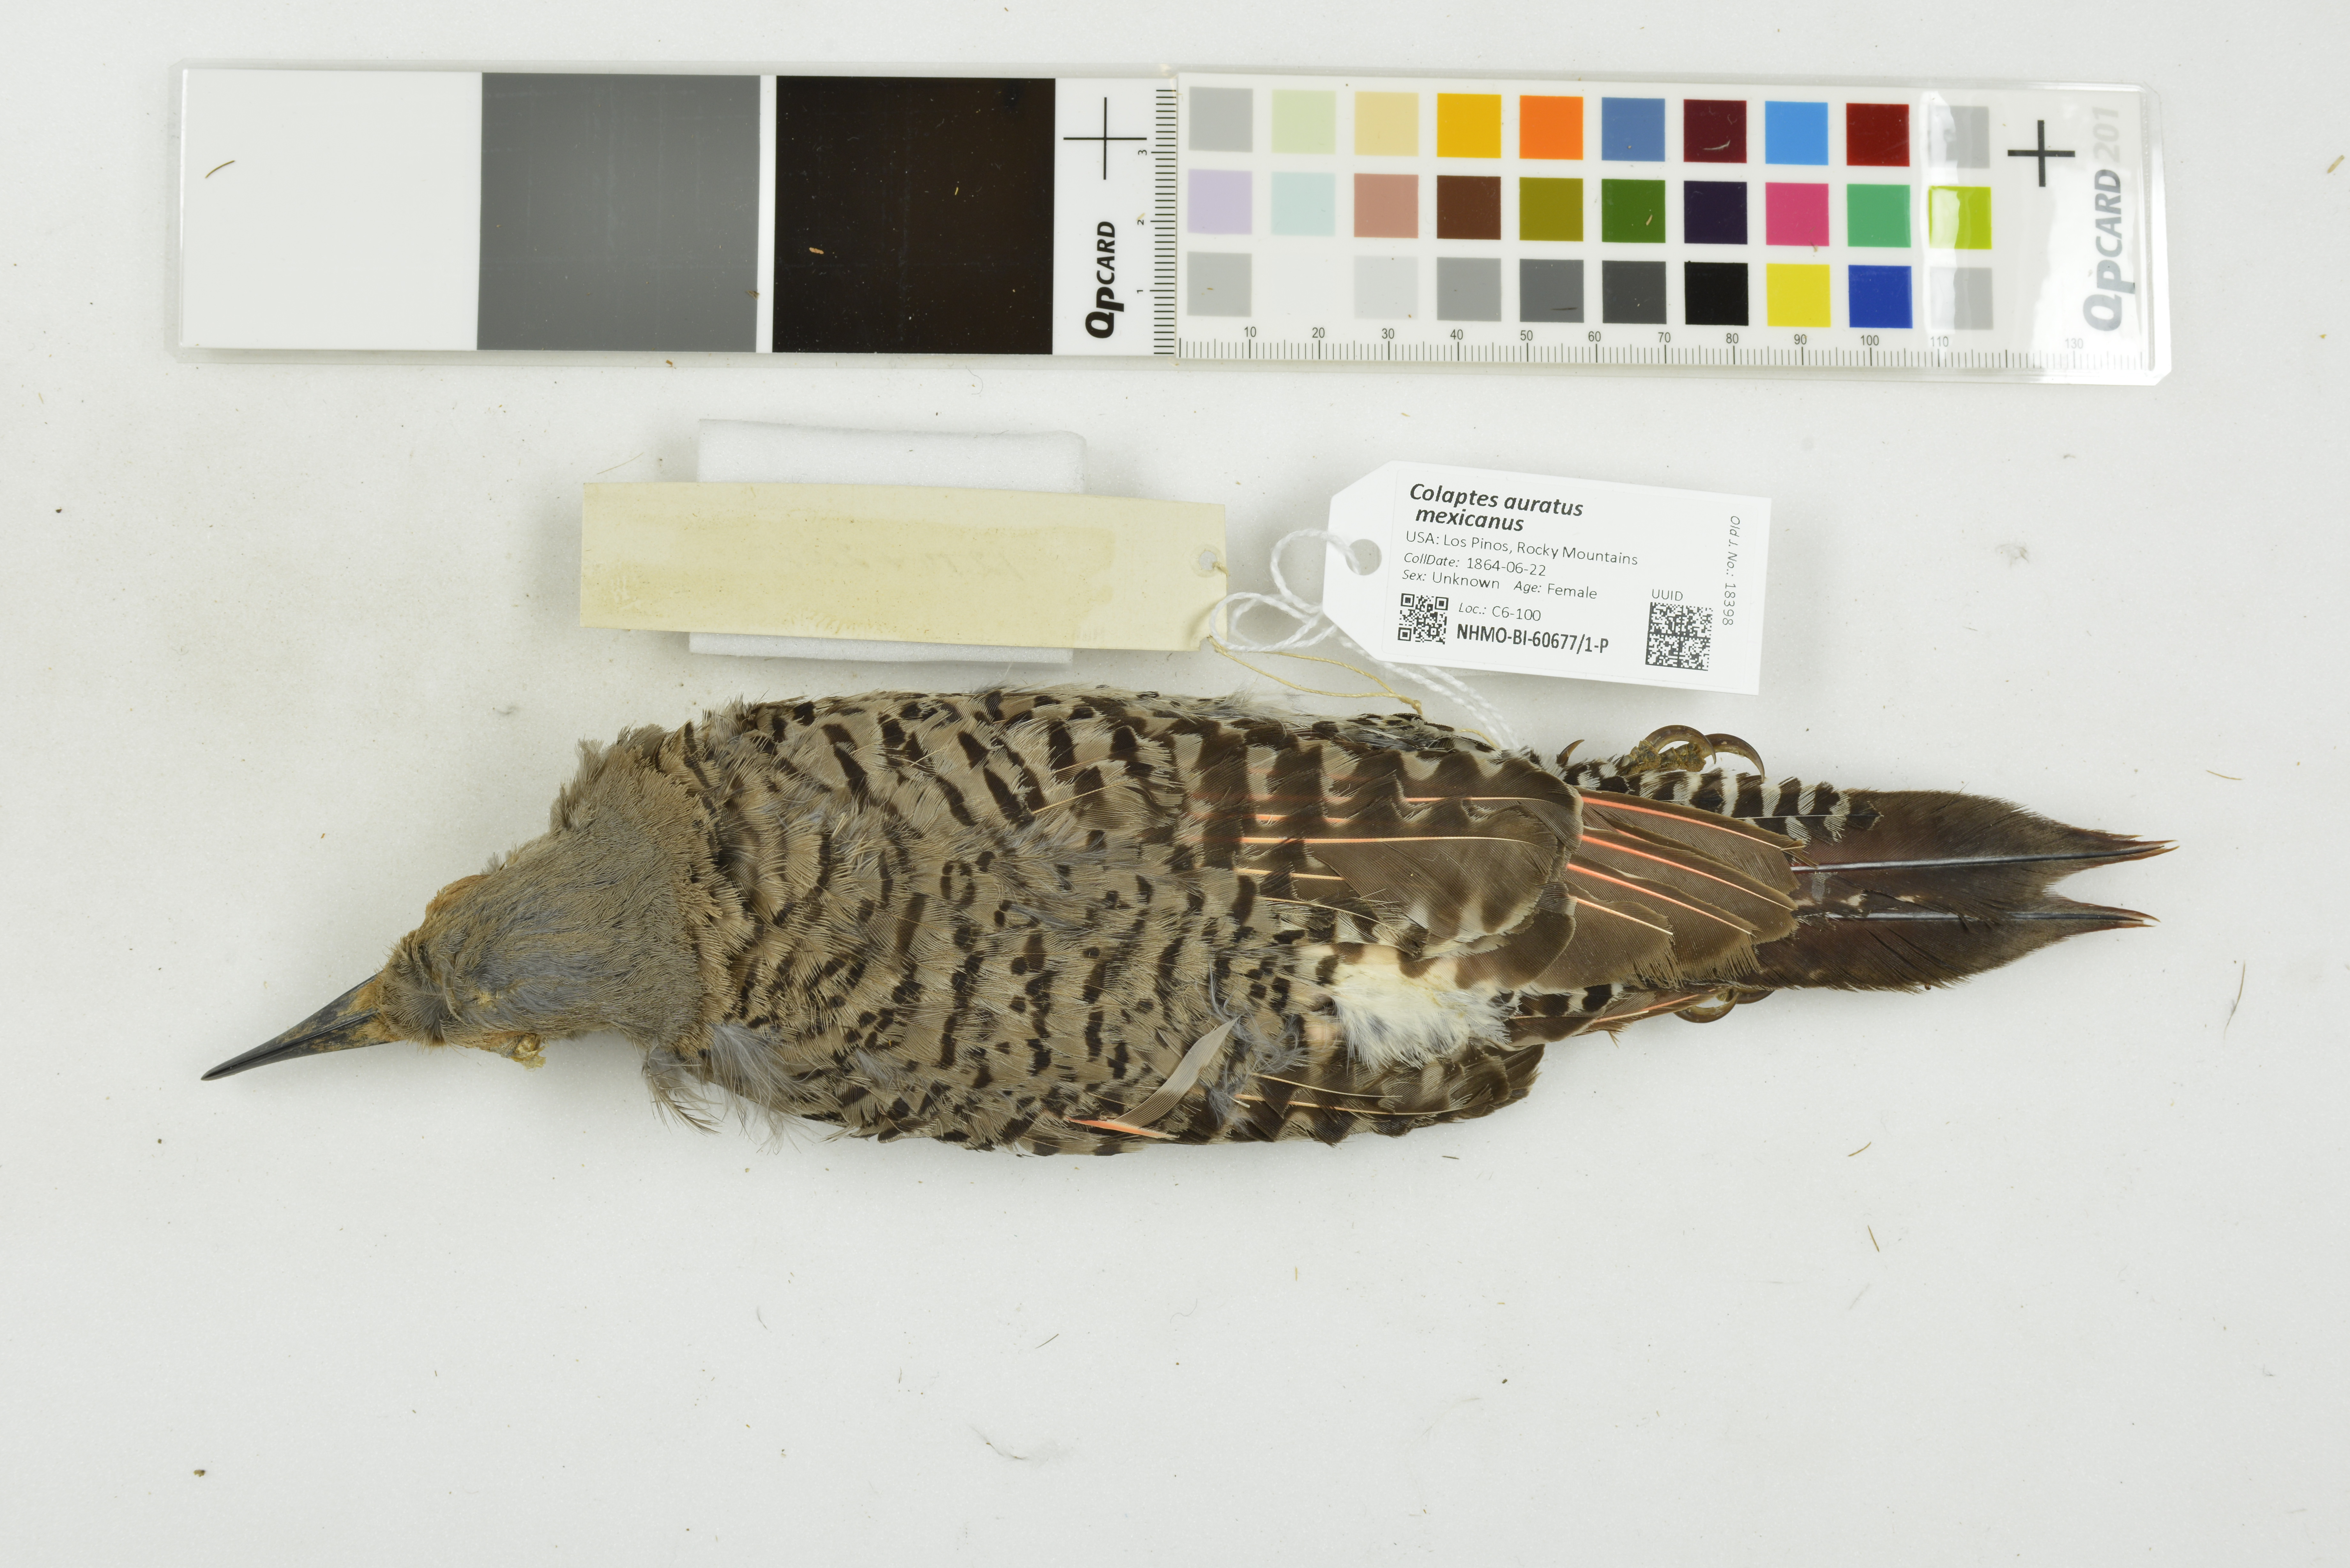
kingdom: Animalia
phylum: Chordata
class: Aves
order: Piciformes
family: Picidae
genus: Colaptes
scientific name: Colaptes auratus
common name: Northern flicker
